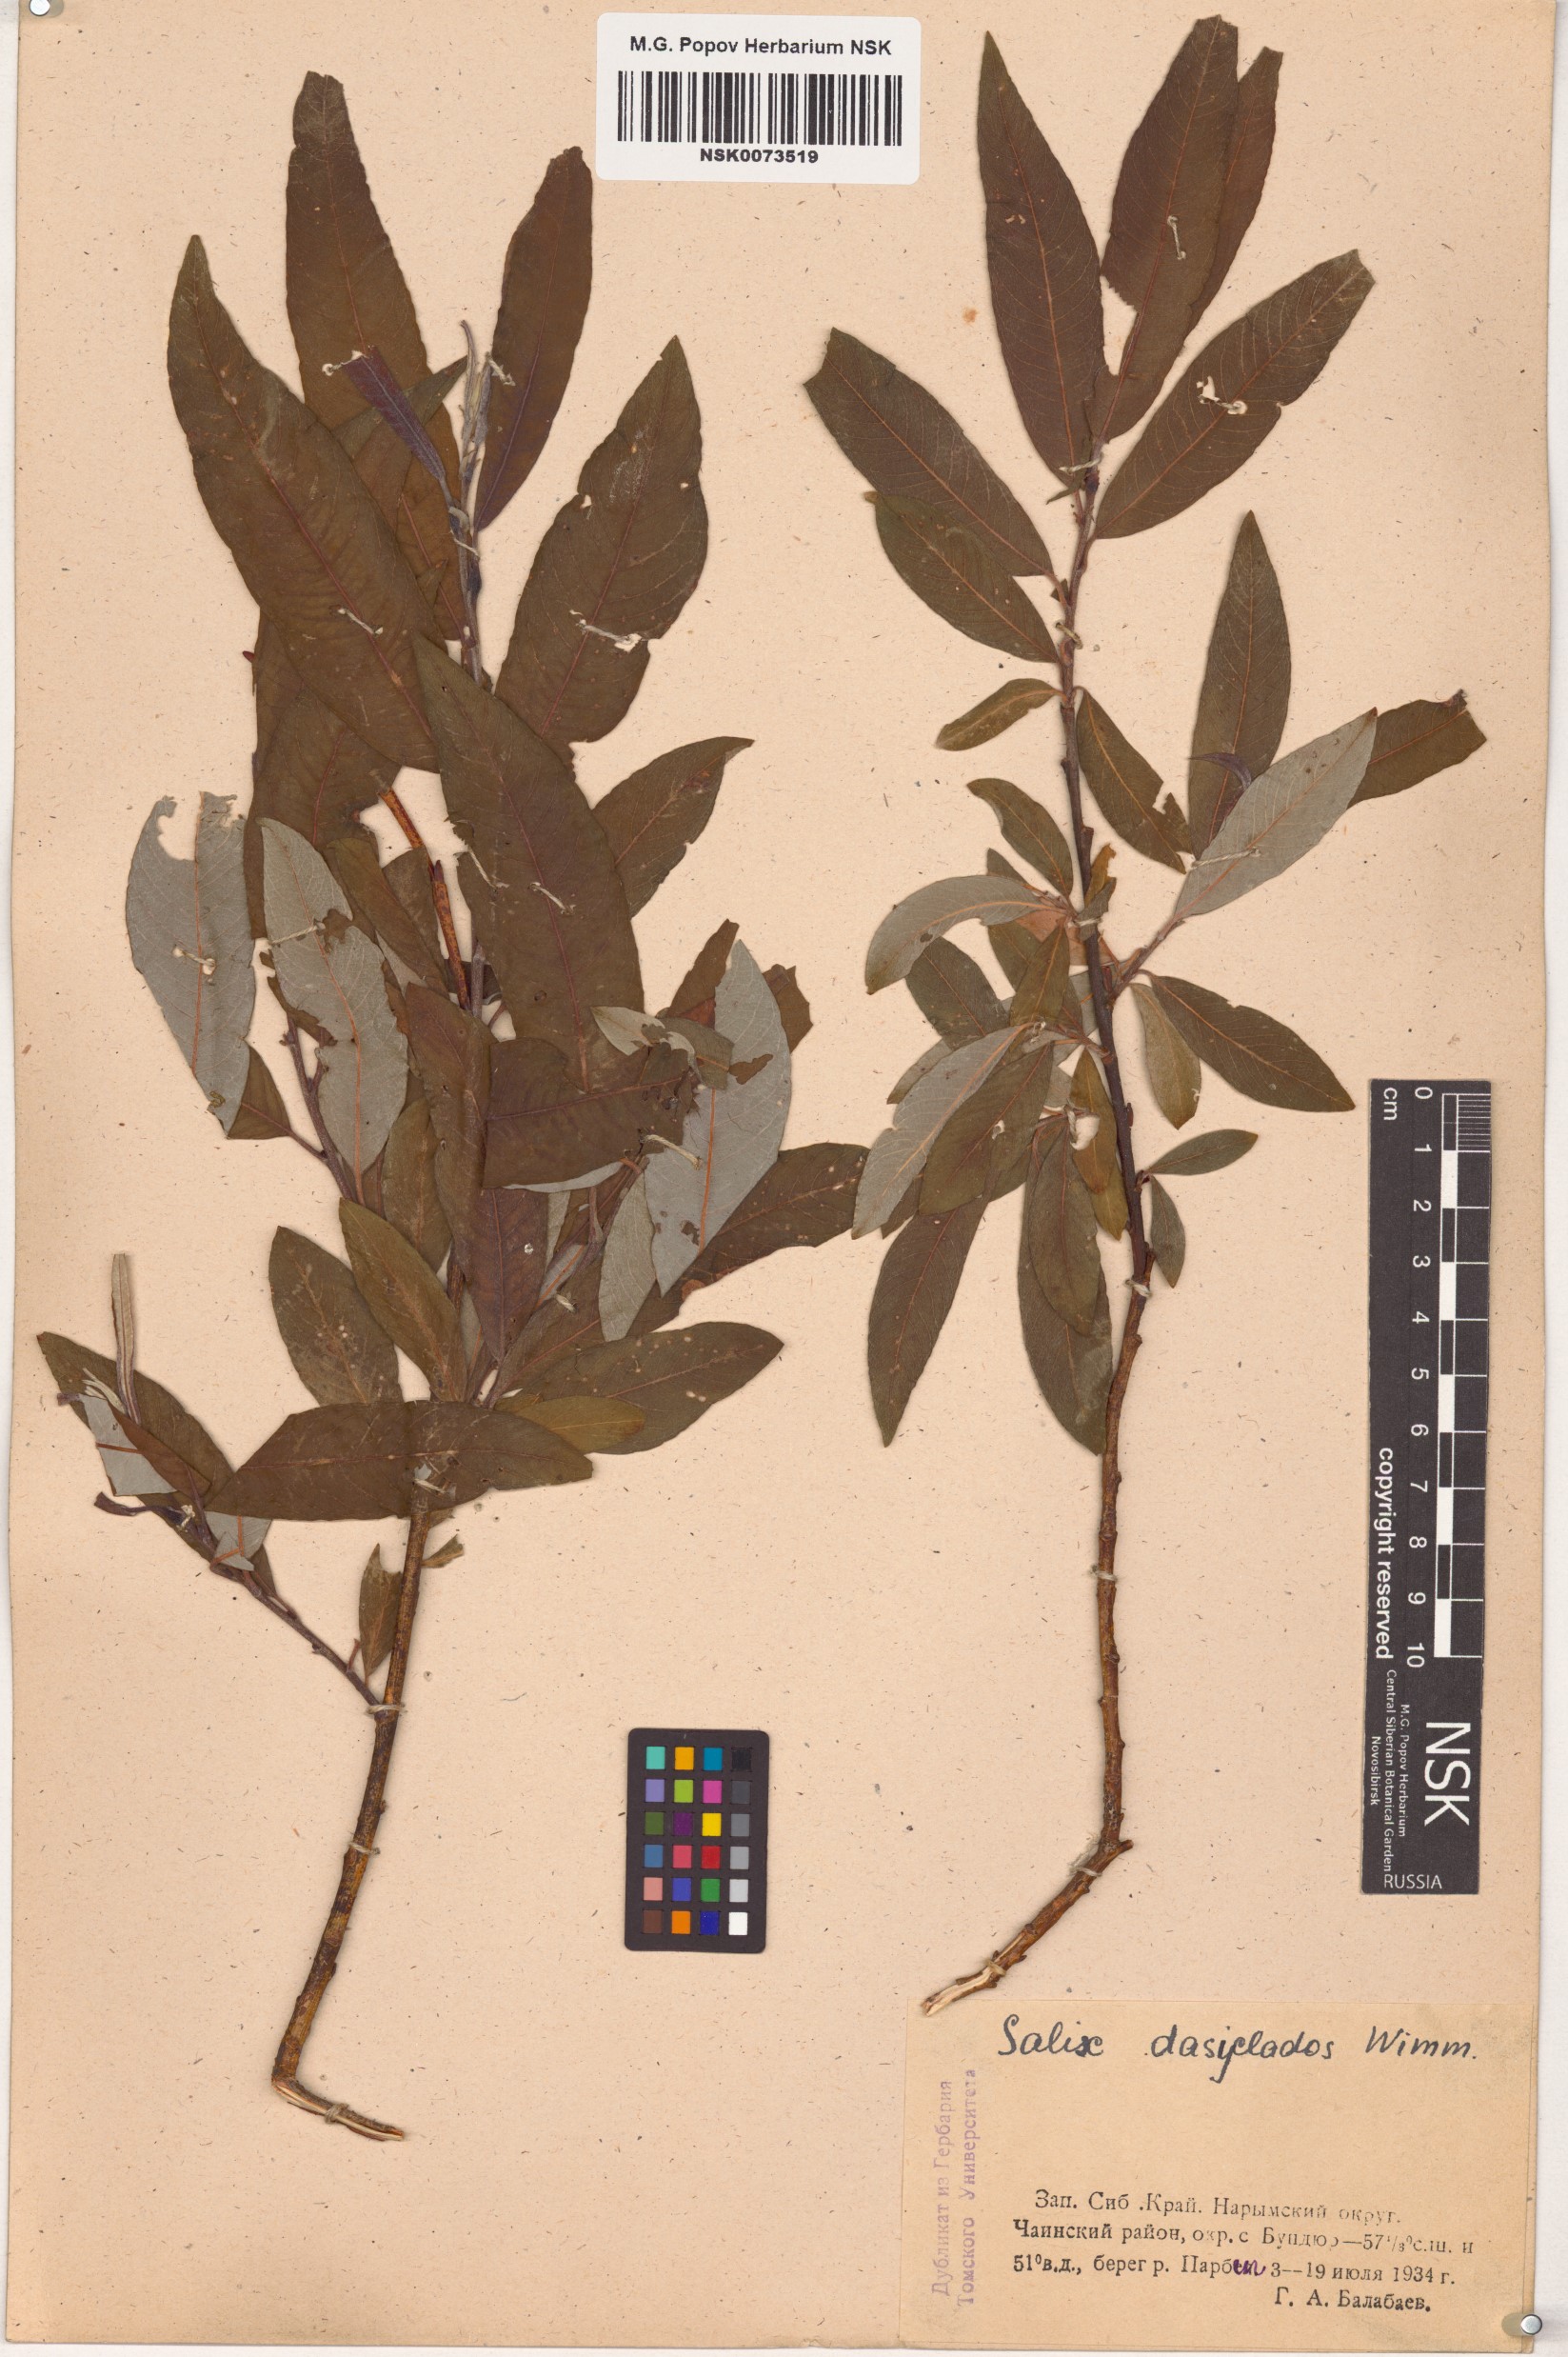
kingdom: Plantae
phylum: Tracheophyta
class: Magnoliopsida
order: Malpighiales
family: Salicaceae
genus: Salix
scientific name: Salix gmelinii
